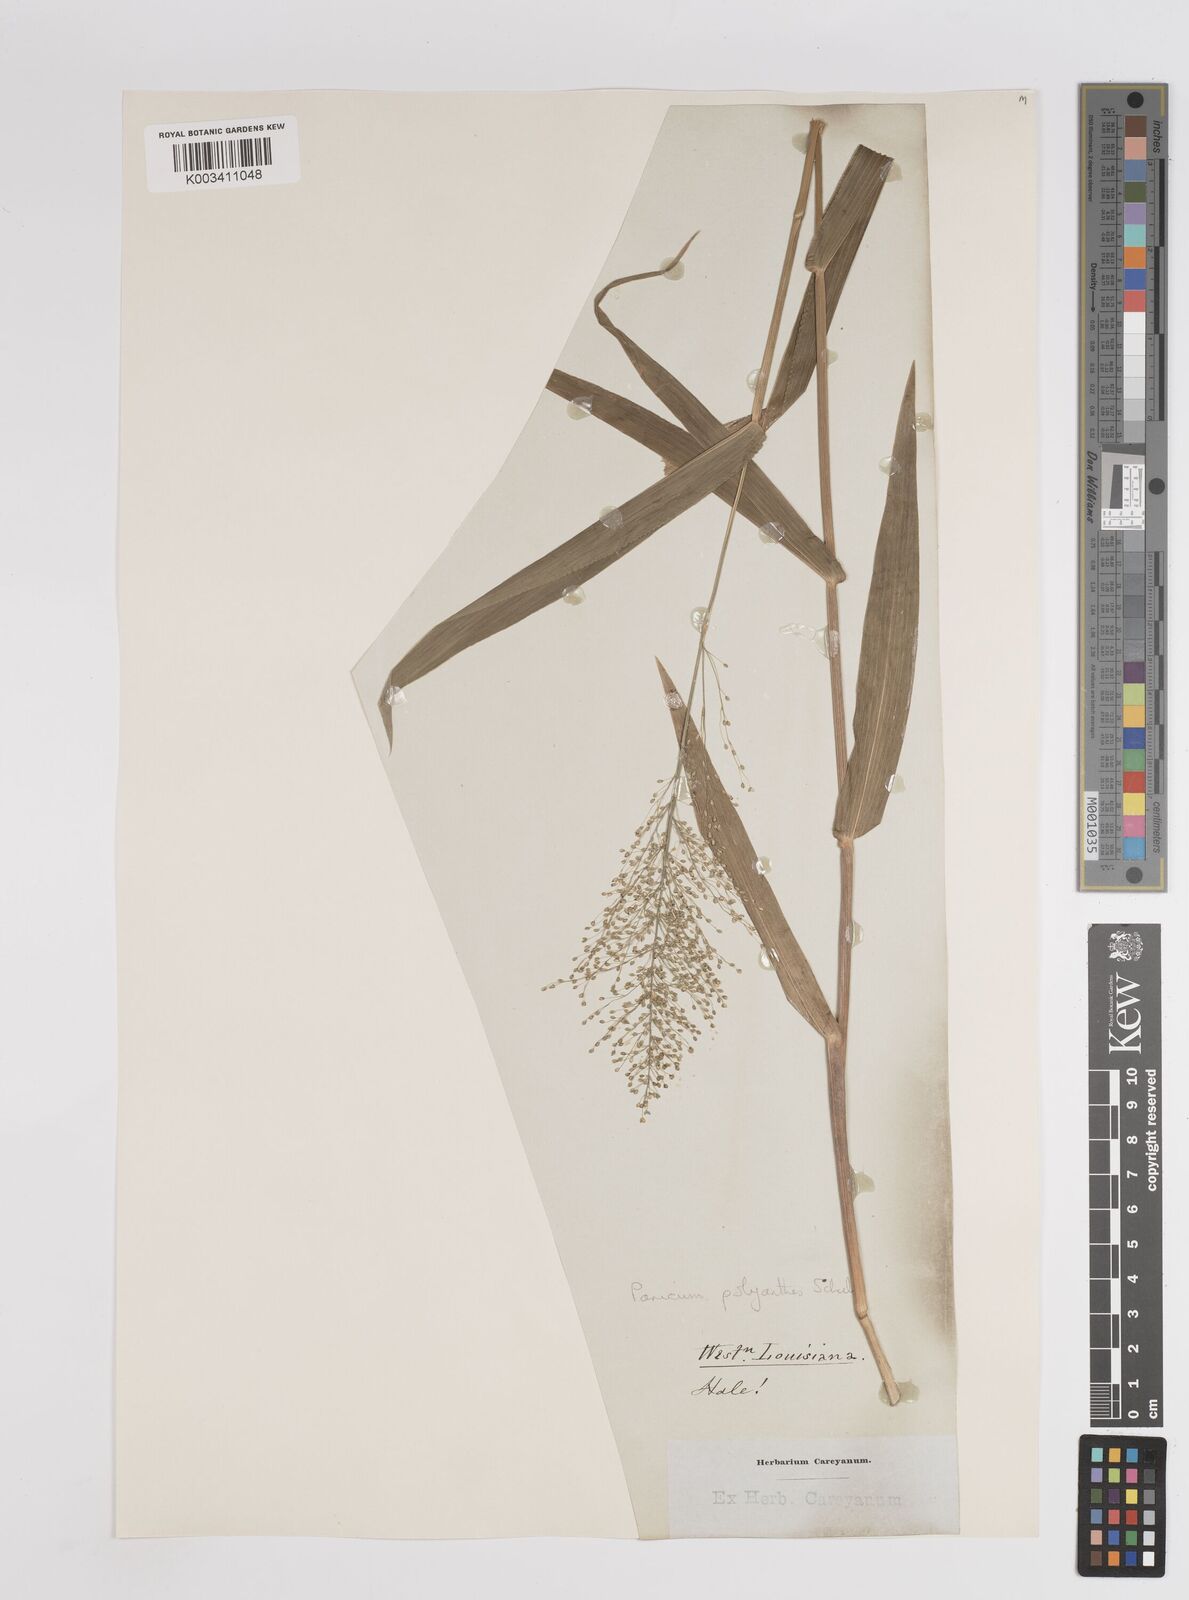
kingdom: Plantae
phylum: Tracheophyta
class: Liliopsida
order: Poales
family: Poaceae
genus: Dichanthelium
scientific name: Dichanthelium polyanthes
